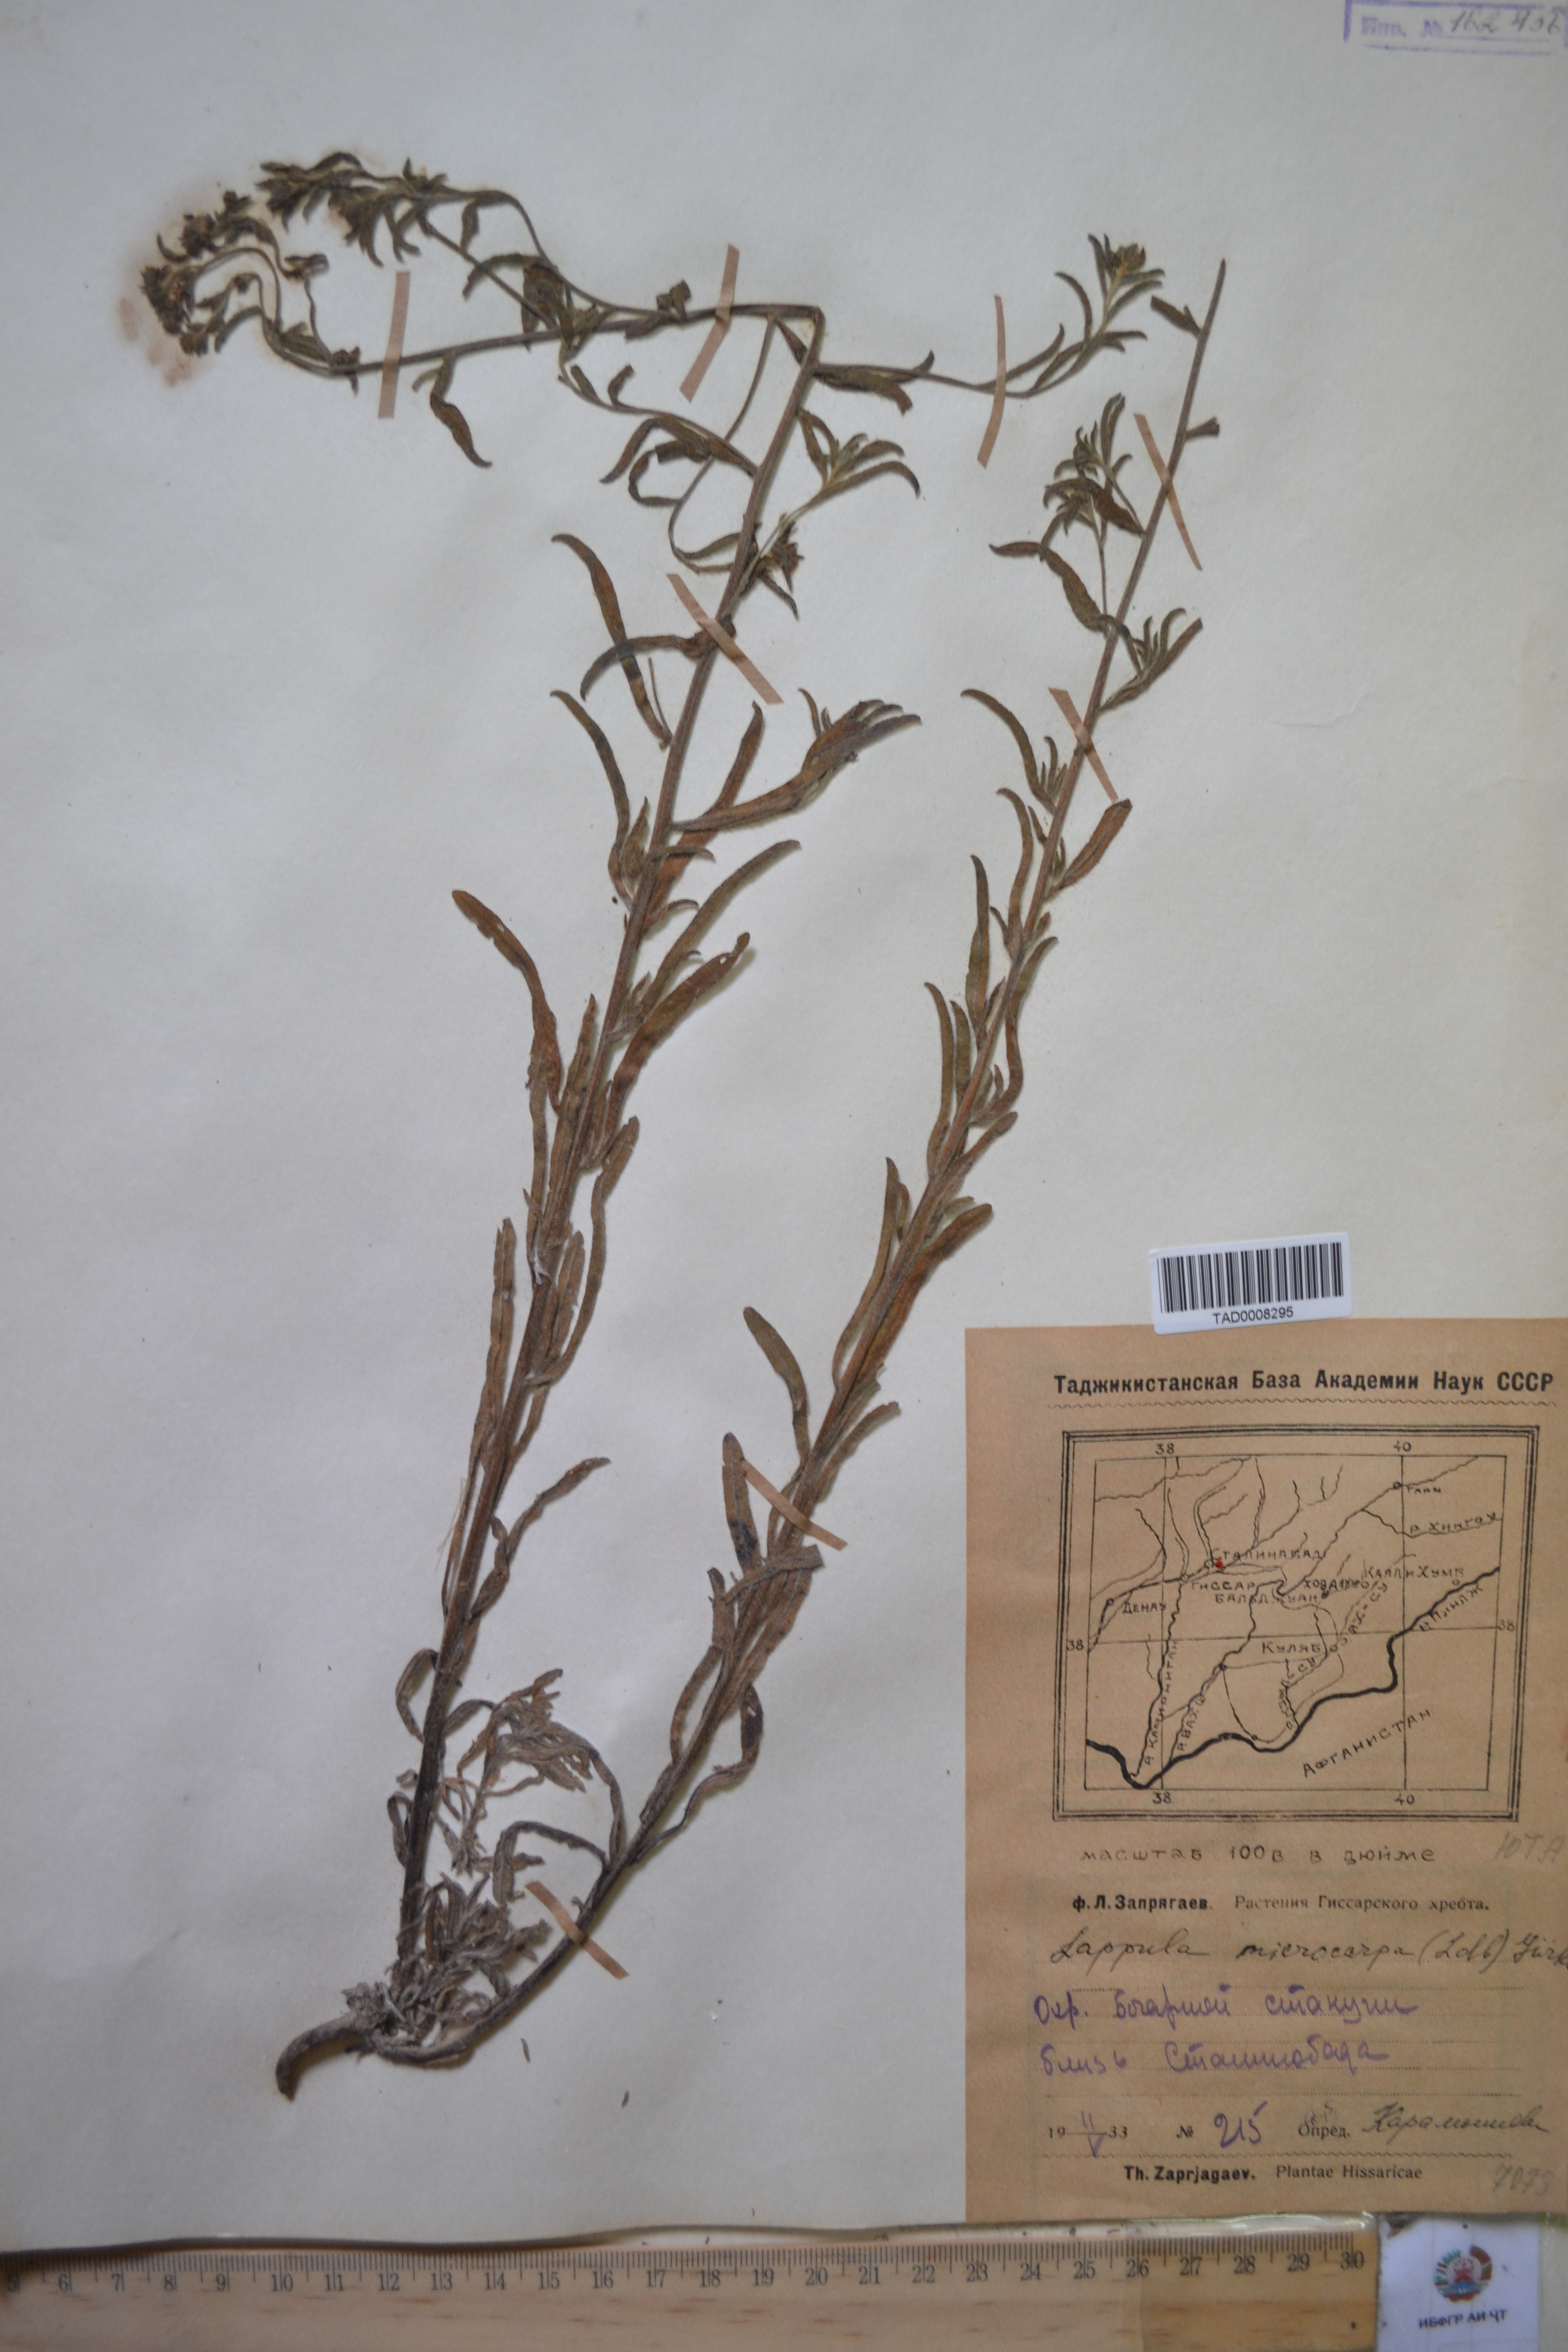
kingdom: Plantae
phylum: Tracheophyta
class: Magnoliopsida
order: Boraginales
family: Boraginaceae
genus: Lappula
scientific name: Lappula microcarpa
